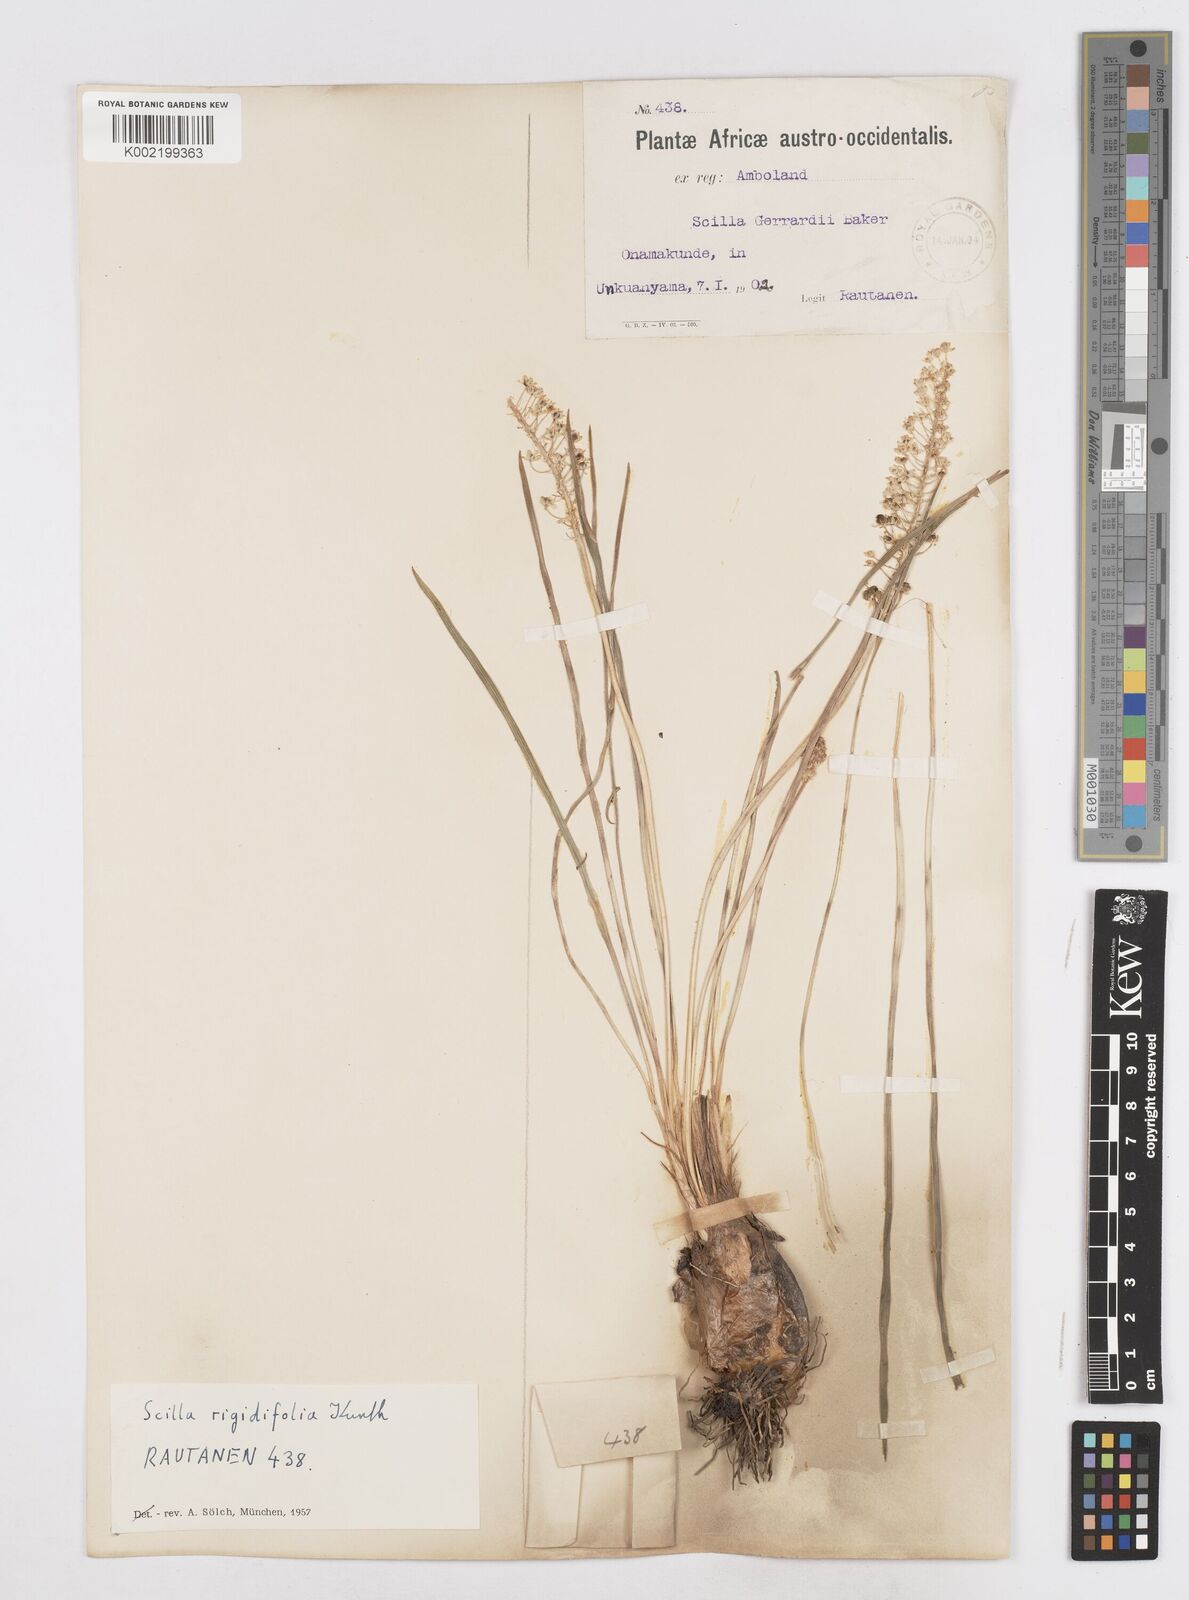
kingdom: Plantae
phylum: Tracheophyta
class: Liliopsida
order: Asparagales
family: Asparagaceae
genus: Schizocarphus
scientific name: Schizocarphus nervosus
